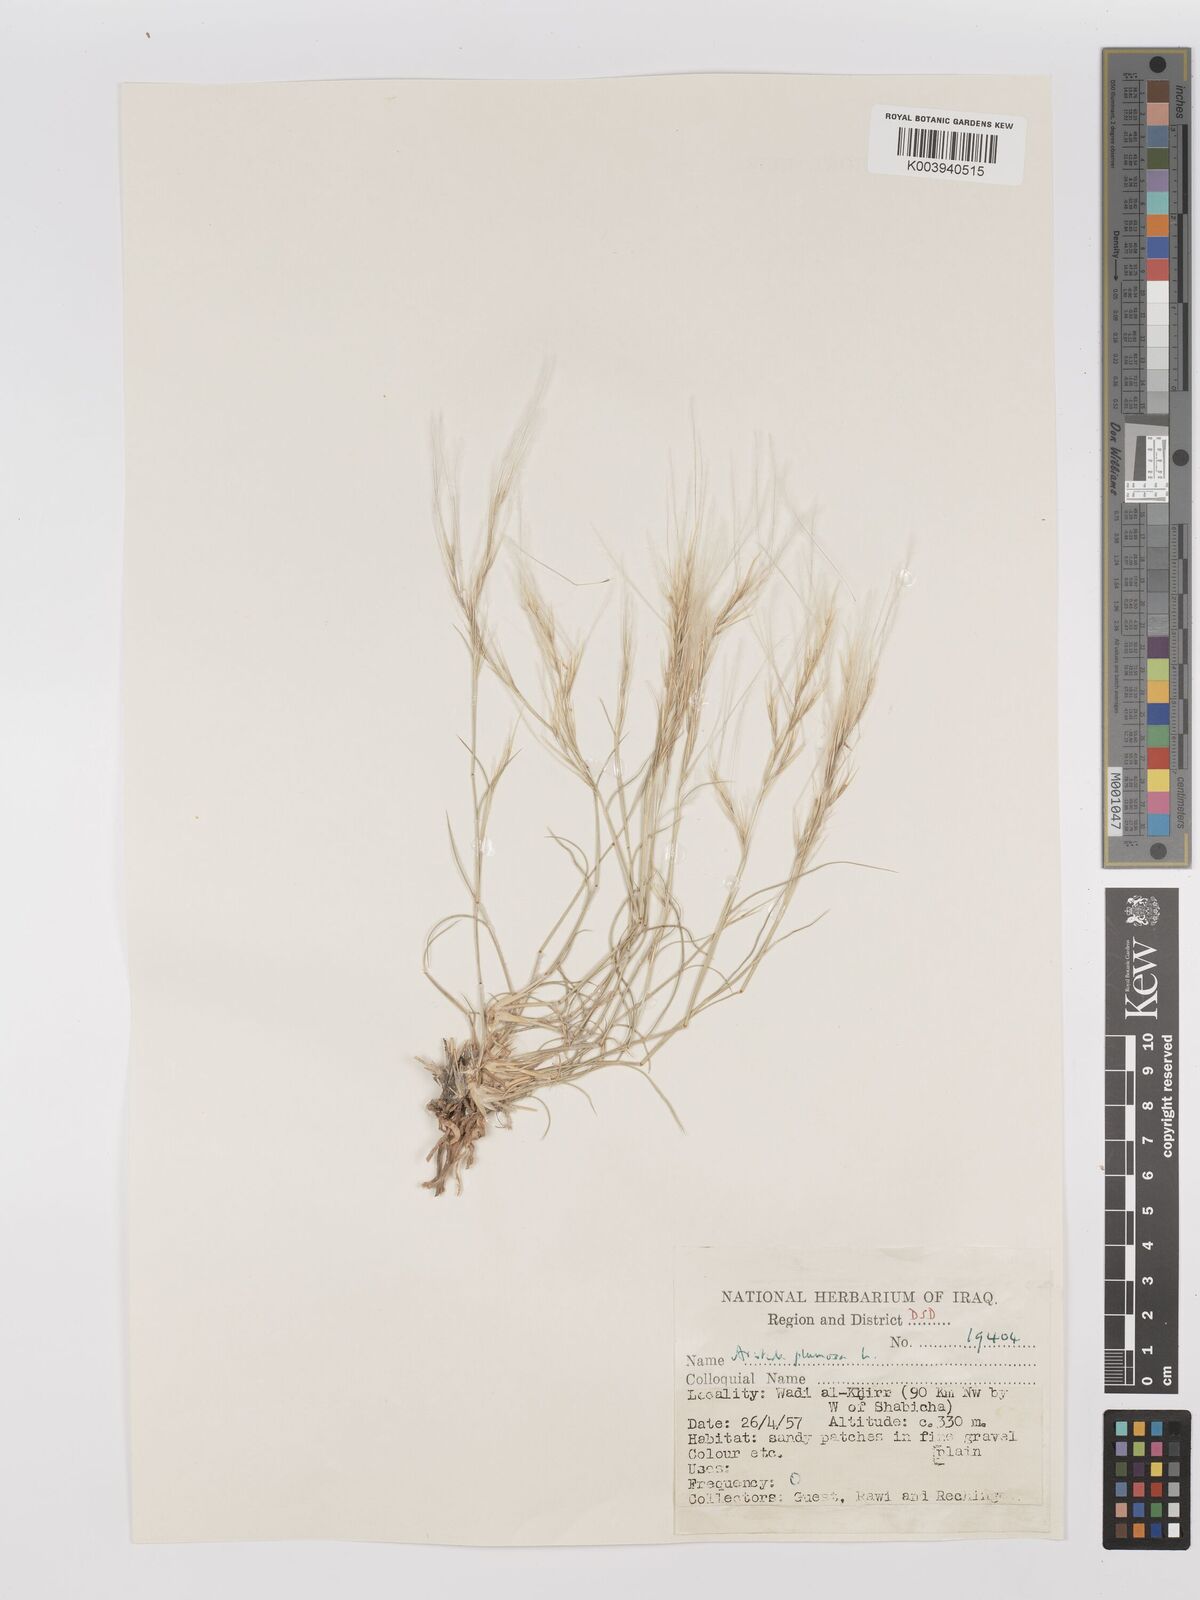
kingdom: Plantae
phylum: Tracheophyta
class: Liliopsida
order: Poales
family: Poaceae
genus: Stipagrostis
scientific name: Stipagrostis plumosa
